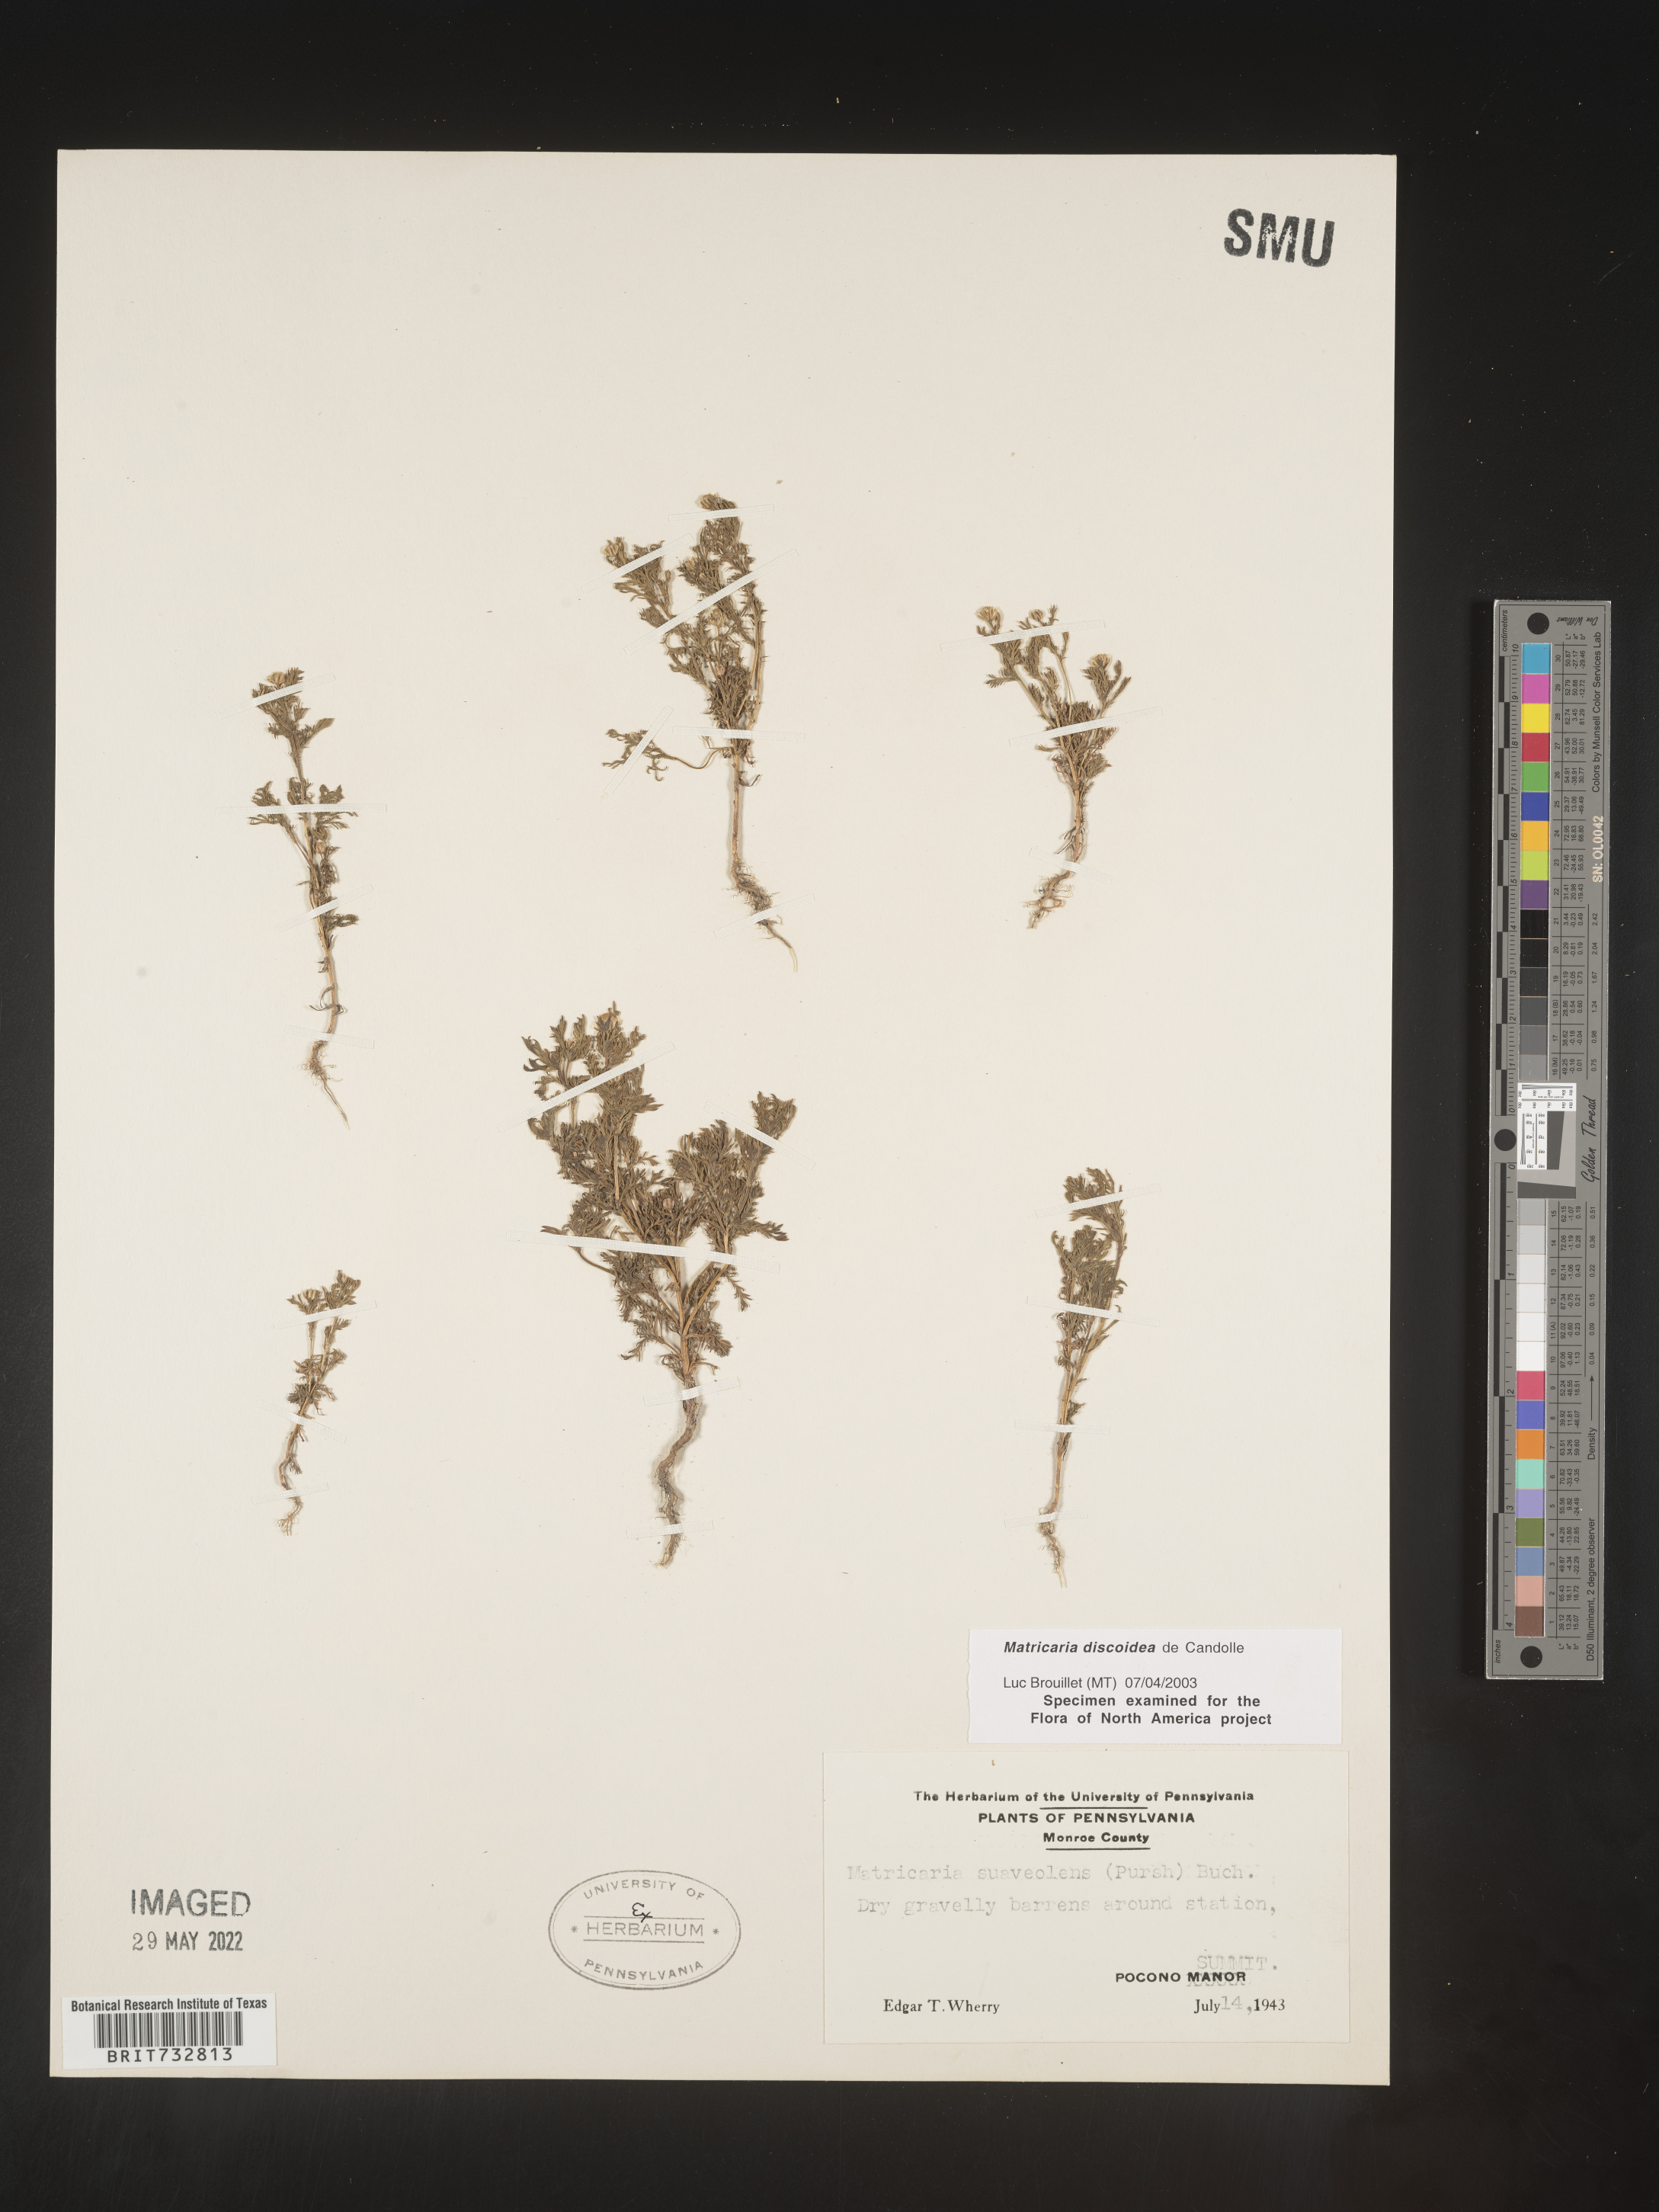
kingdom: Plantae
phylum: Tracheophyta
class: Magnoliopsida
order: Asterales
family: Asteraceae
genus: Matricaria
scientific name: Matricaria discoidea
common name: Disc mayweed
